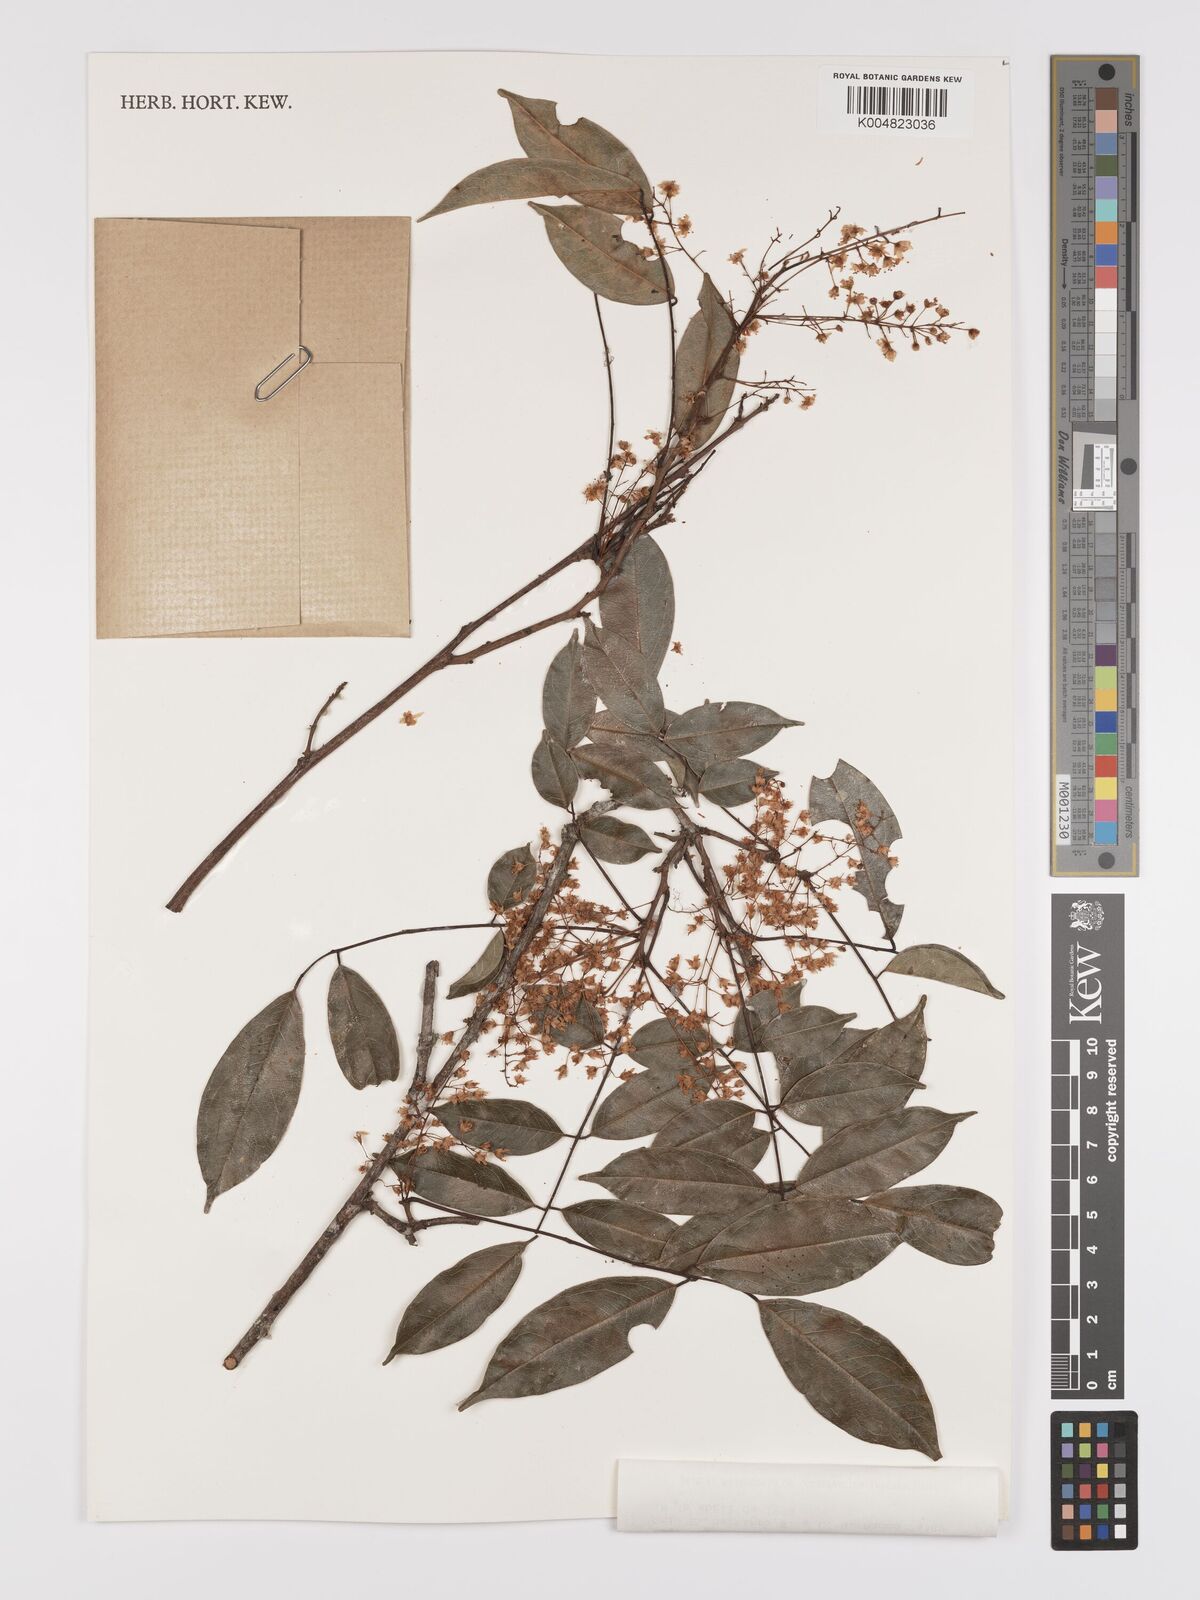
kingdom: Plantae
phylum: Tracheophyta
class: Magnoliopsida
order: Oxalidales
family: Connaraceae
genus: Rourea
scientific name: Rourea glabra
